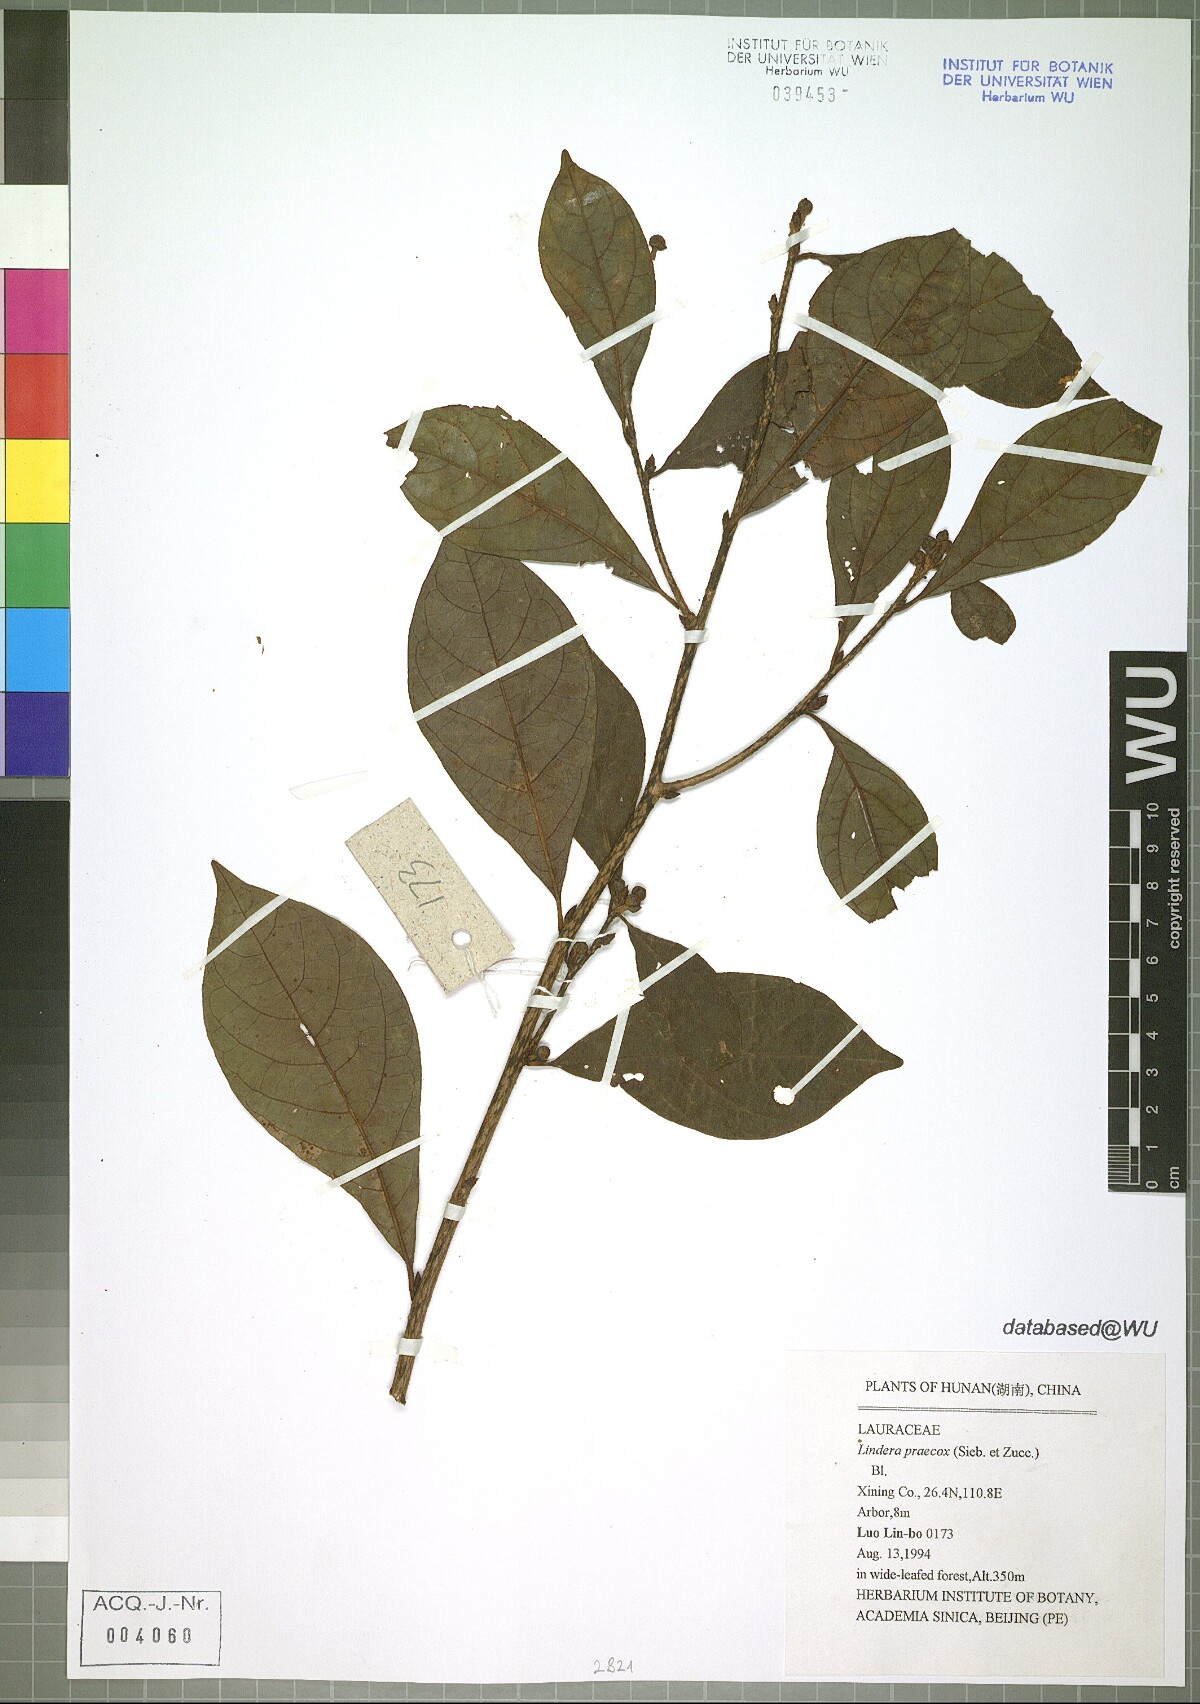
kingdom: Plantae
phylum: Tracheophyta
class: Magnoliopsida
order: Laurales
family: Lauraceae
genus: Lindera
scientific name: Lindera praecox
